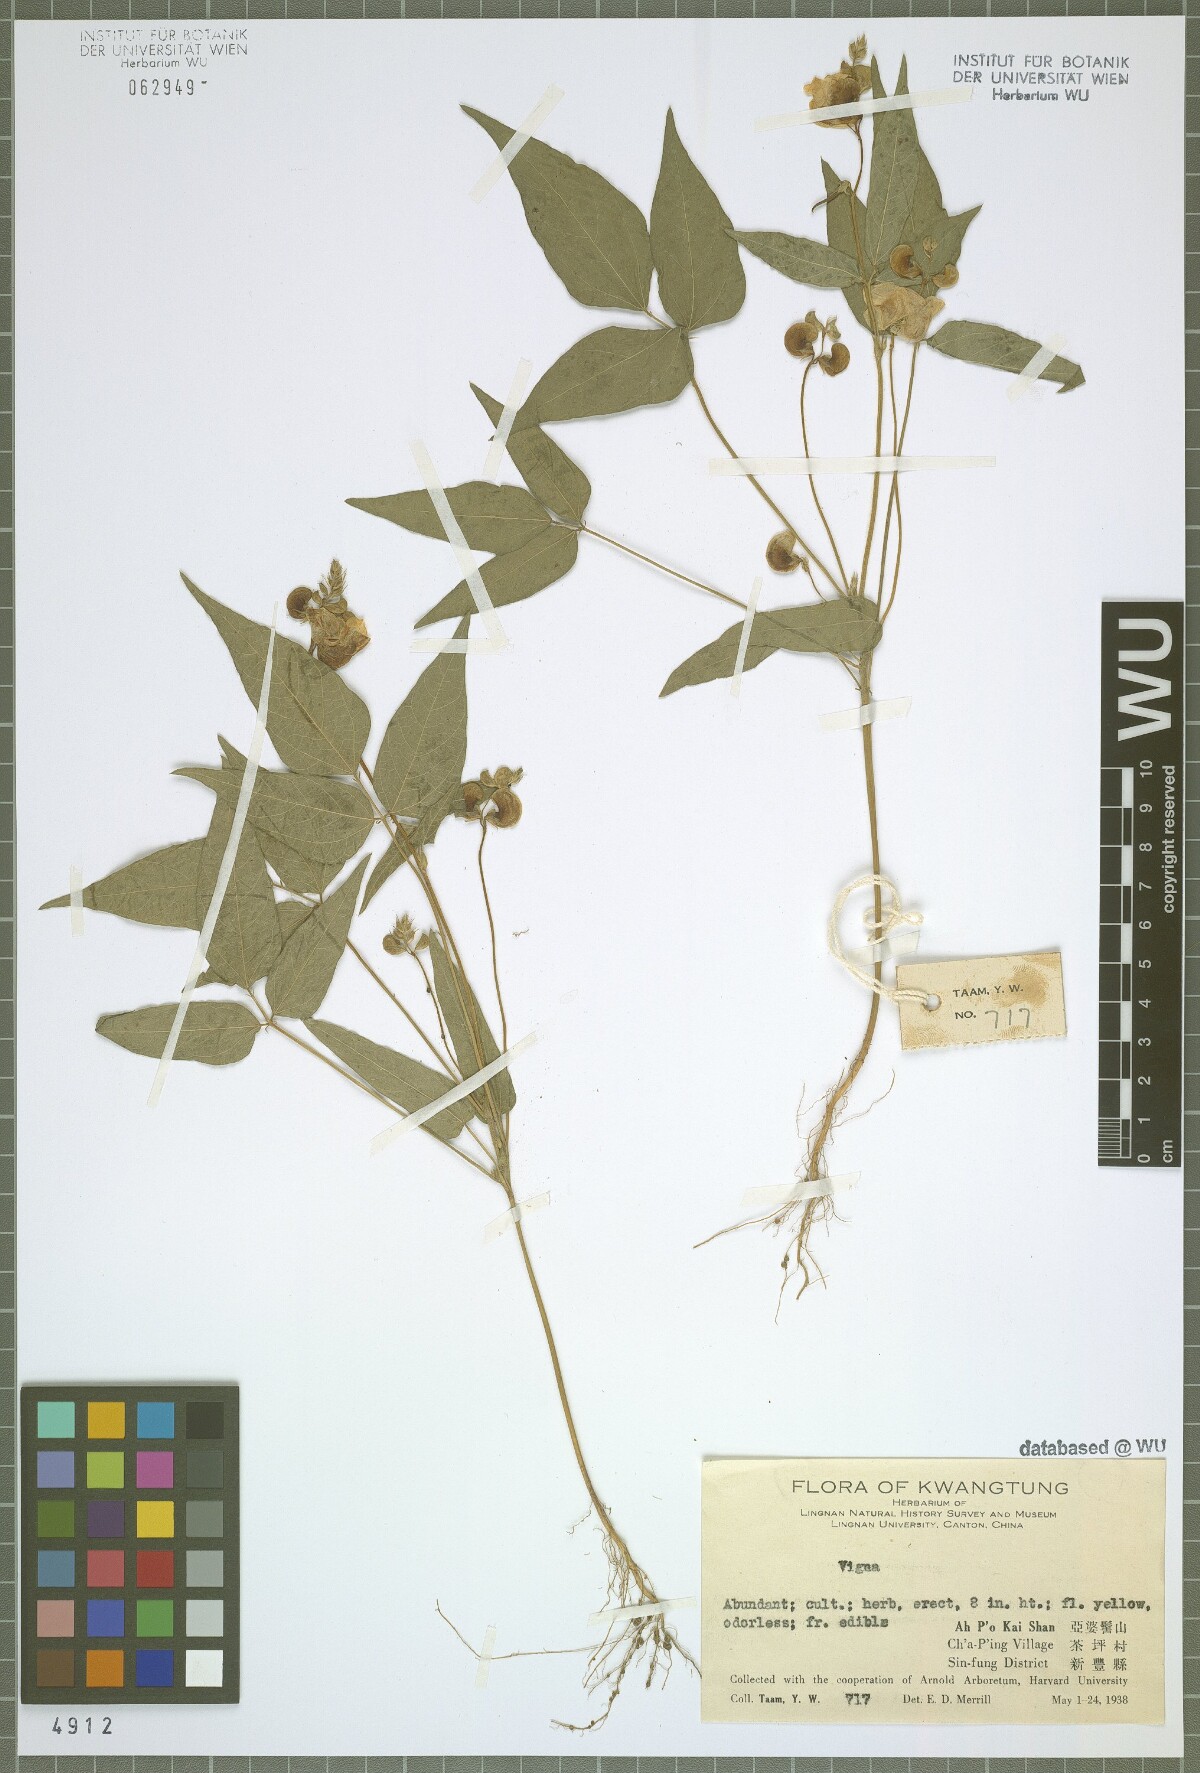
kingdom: Plantae
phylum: Tracheophyta
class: Magnoliopsida
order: Fabales
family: Fabaceae
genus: Vigna
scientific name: Vigna
